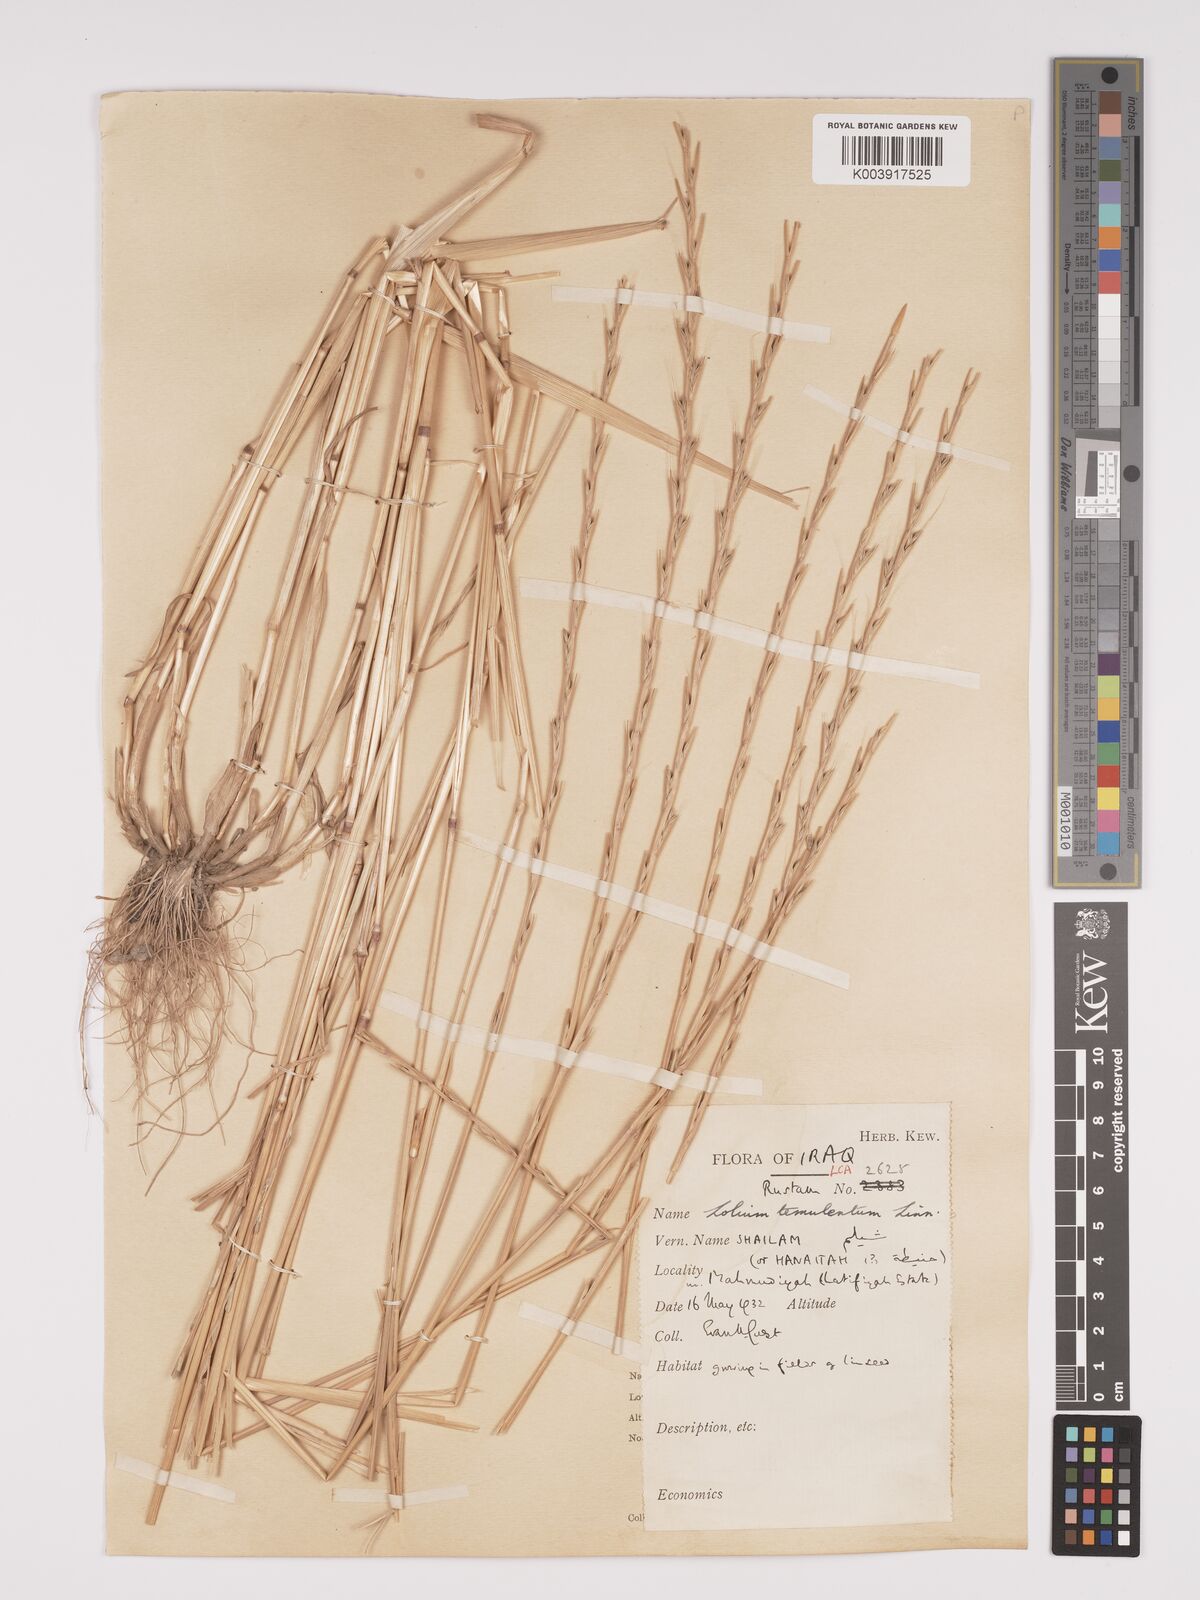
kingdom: Plantae
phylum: Tracheophyta
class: Liliopsida
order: Poales
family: Poaceae
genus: Lolium
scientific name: Lolium temulentum
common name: Darnel
